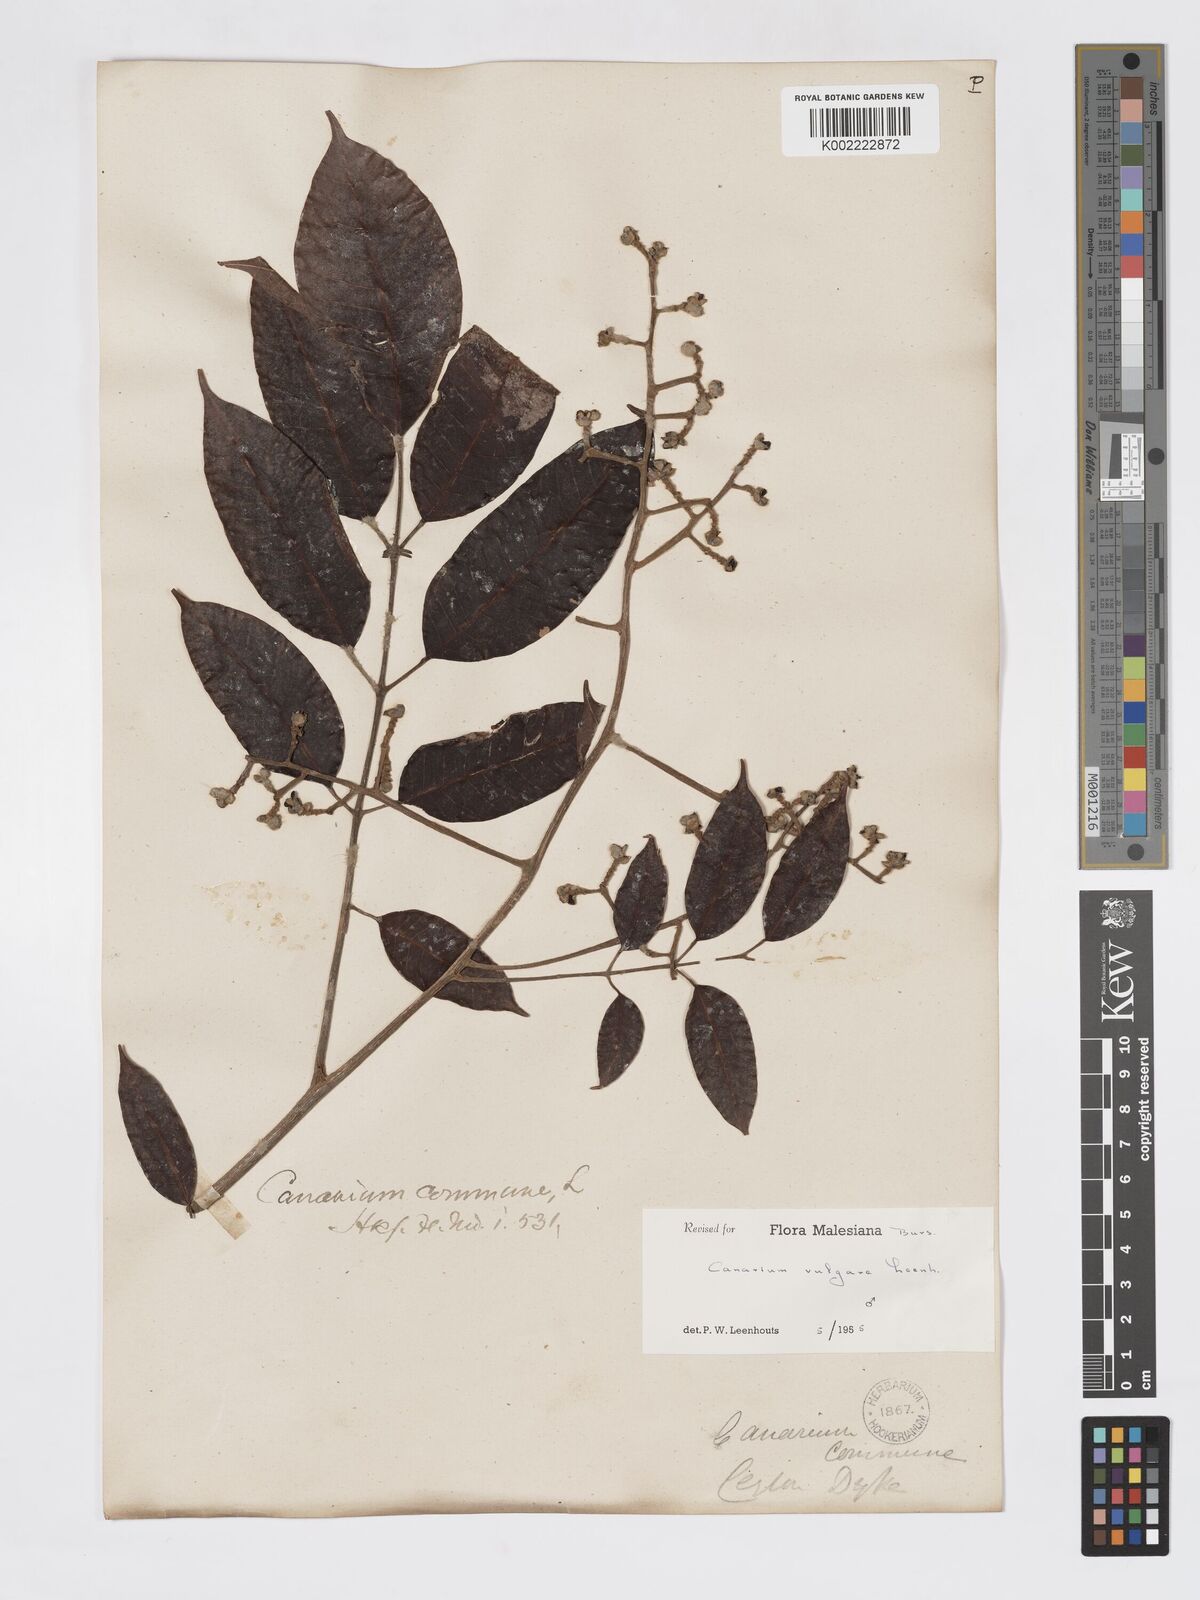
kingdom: Plantae
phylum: Tracheophyta
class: Magnoliopsida
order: Sapindales
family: Burseraceae
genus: Canarium
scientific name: Canarium vulgare
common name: Java almond
